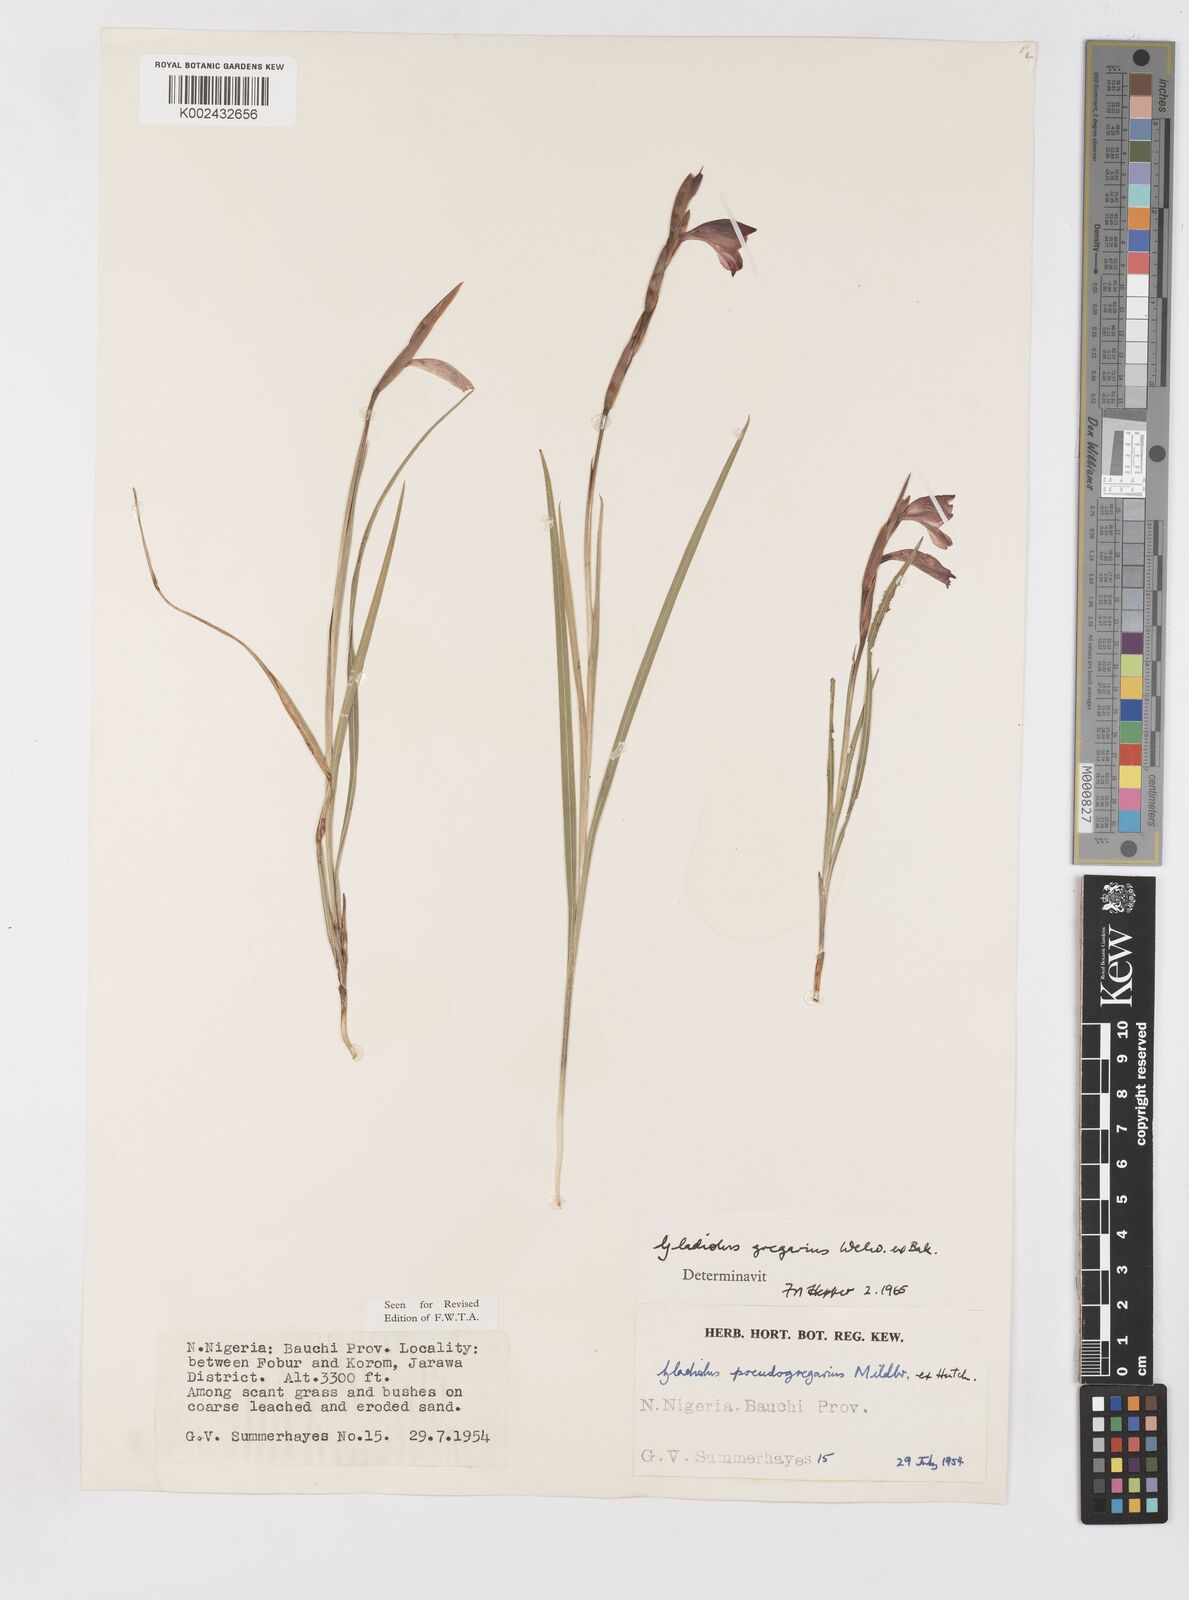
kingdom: Plantae
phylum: Tracheophyta
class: Liliopsida
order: Asparagales
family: Iridaceae
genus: Gladiolus
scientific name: Gladiolus gregarius
